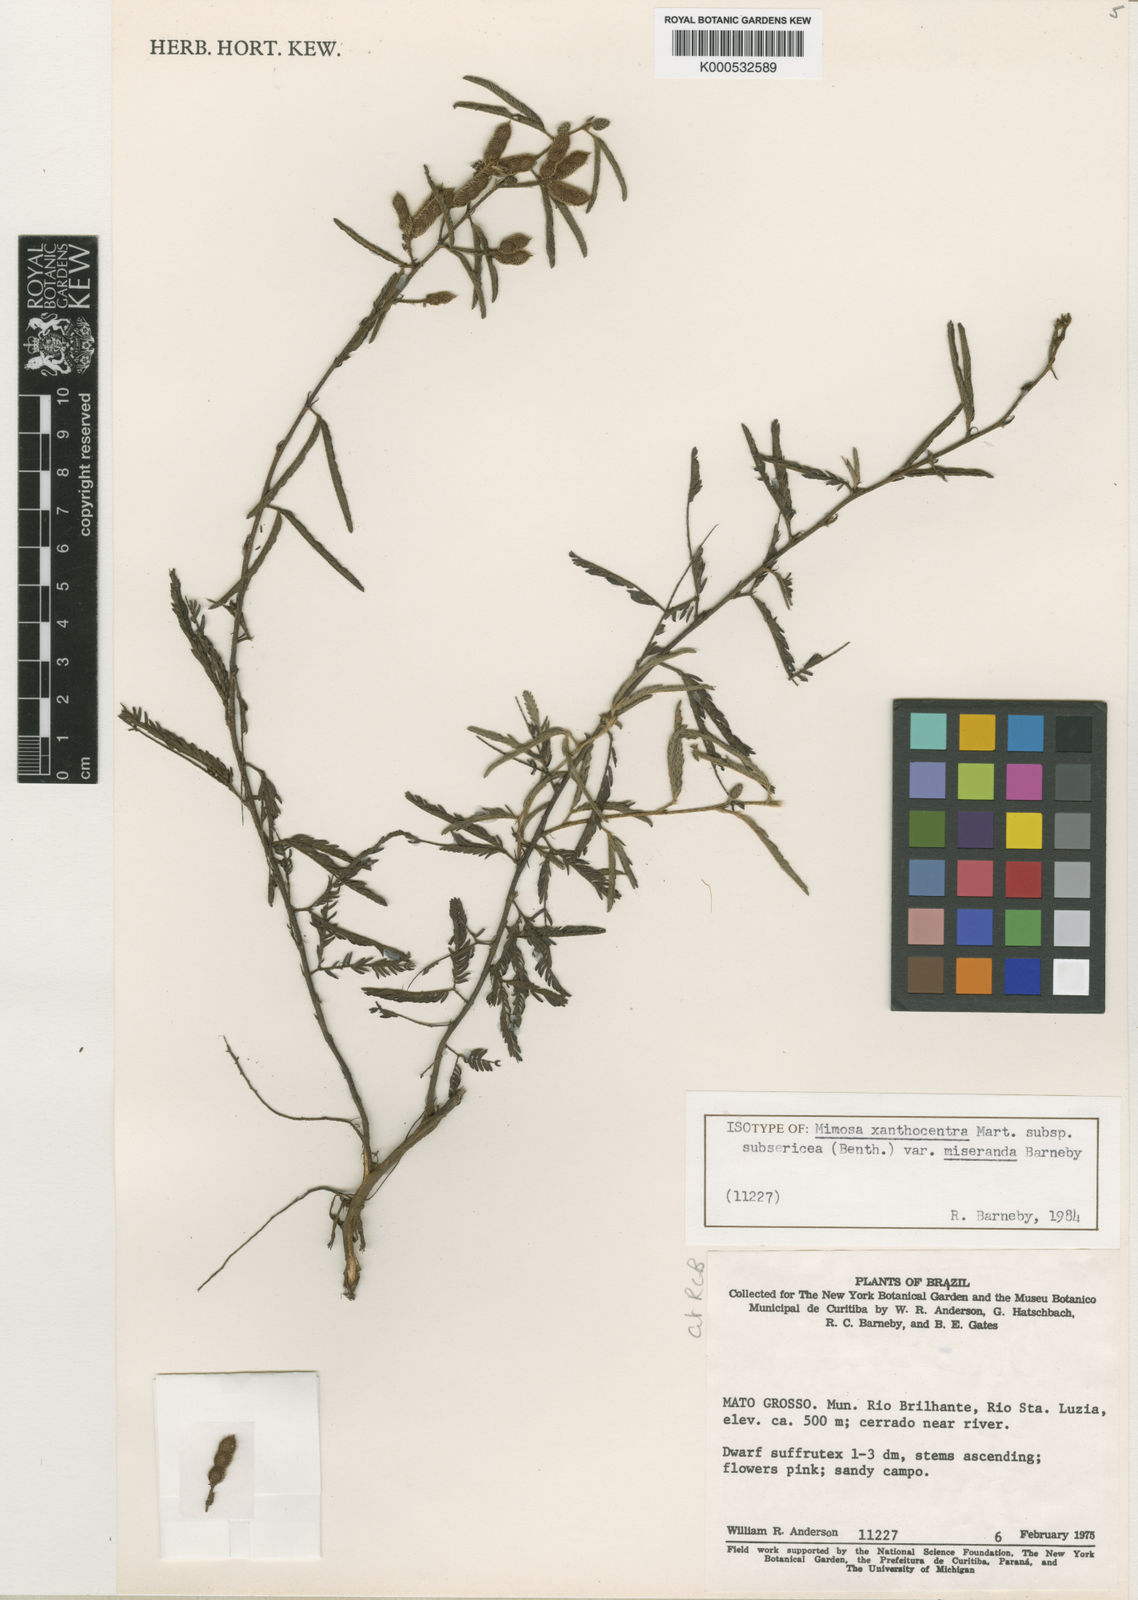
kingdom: Plantae
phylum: Tracheophyta
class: Magnoliopsida
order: Fabales
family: Fabaceae
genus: Mimosa
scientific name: Mimosa xanthocentra
